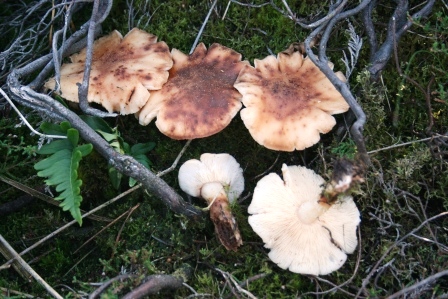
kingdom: Fungi
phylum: Basidiomycota
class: Agaricomycetes
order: Agaricales
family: Omphalotaceae
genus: Rhodocollybia
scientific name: Rhodocollybia maculata
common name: plettet fladhat
